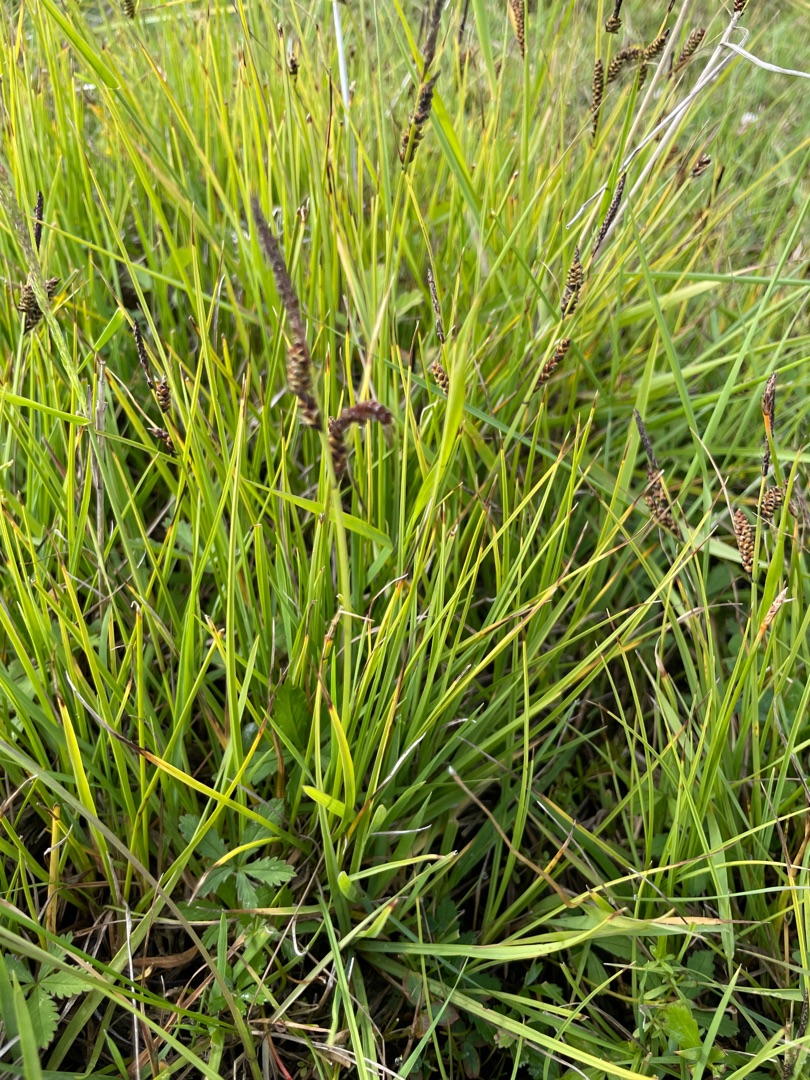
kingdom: Plantae
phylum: Tracheophyta
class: Liliopsida
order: Poales
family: Cyperaceae
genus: Carex
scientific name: Carex nigra
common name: Almindelig star
